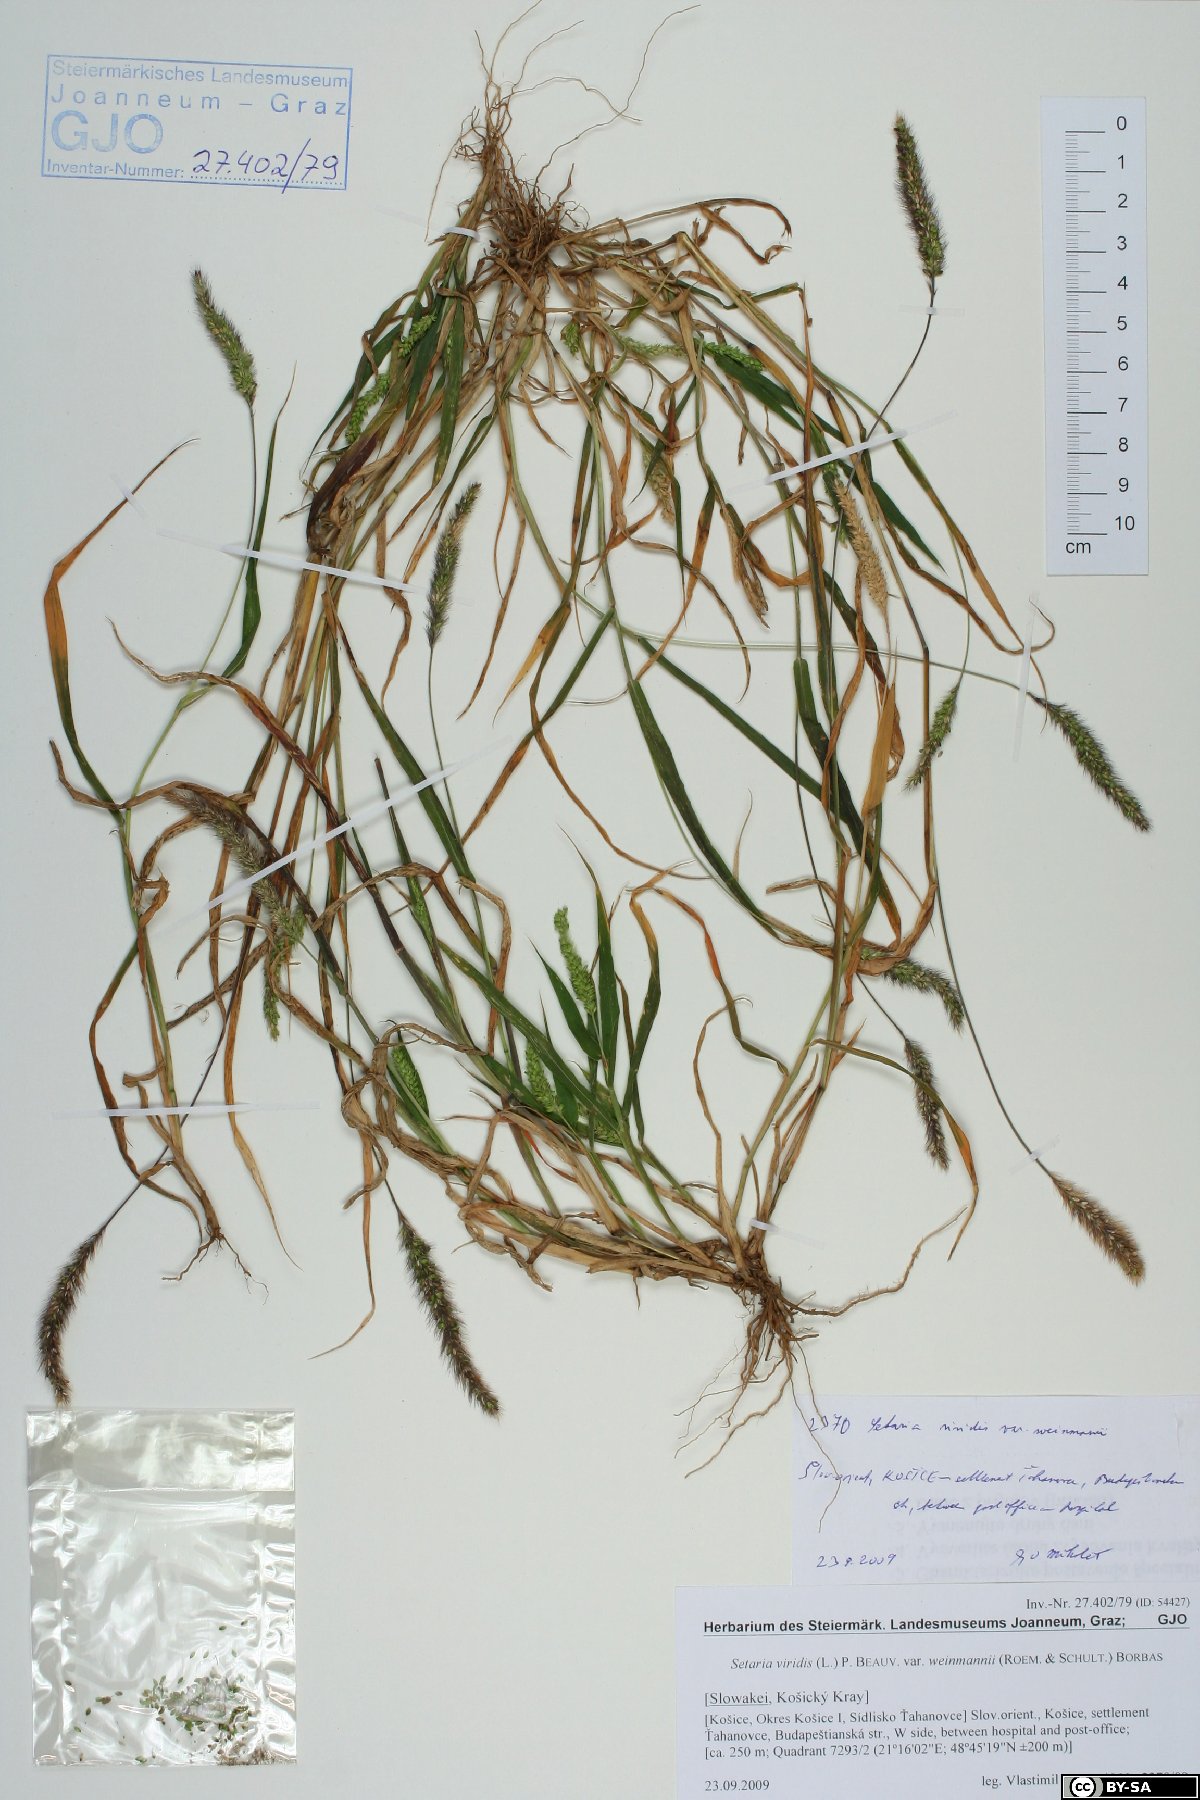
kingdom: Plantae
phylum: Tracheophyta
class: Liliopsida
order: Poales
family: Poaceae
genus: Setaria
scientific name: Setaria viridis
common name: Green bristlegrass
